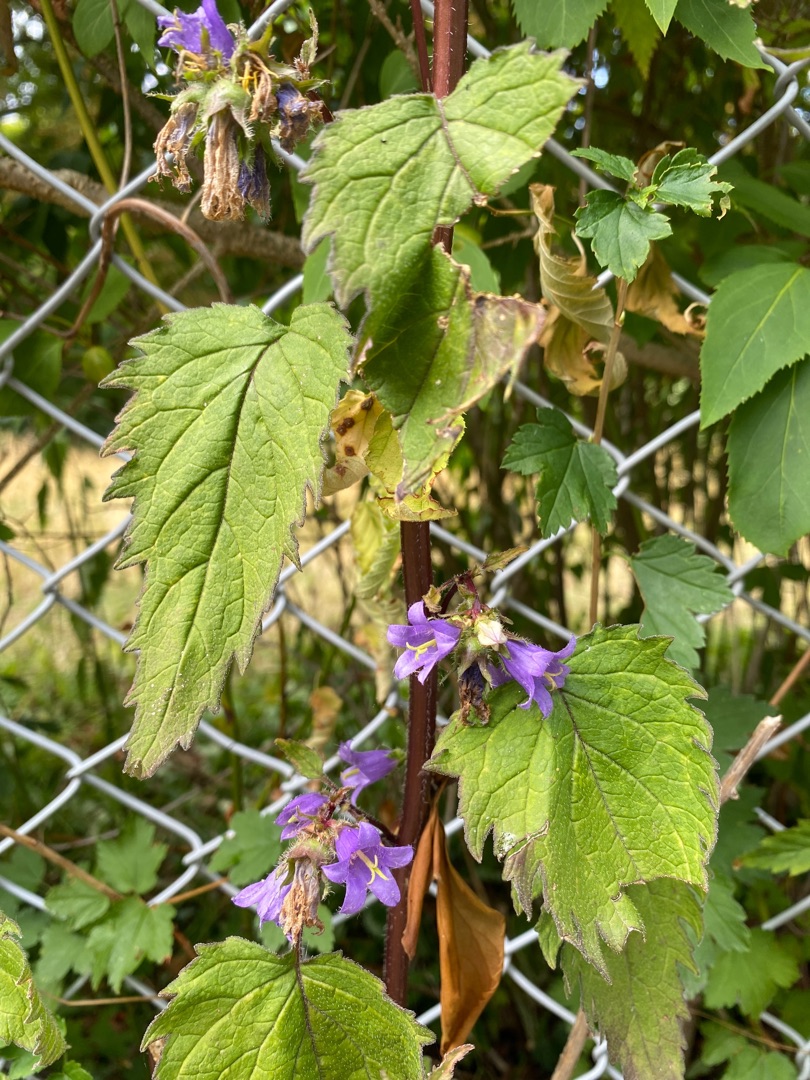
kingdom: Plantae
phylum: Tracheophyta
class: Magnoliopsida
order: Asterales
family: Campanulaceae
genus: Campanula
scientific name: Campanula trachelium
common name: Nælde-klokke
